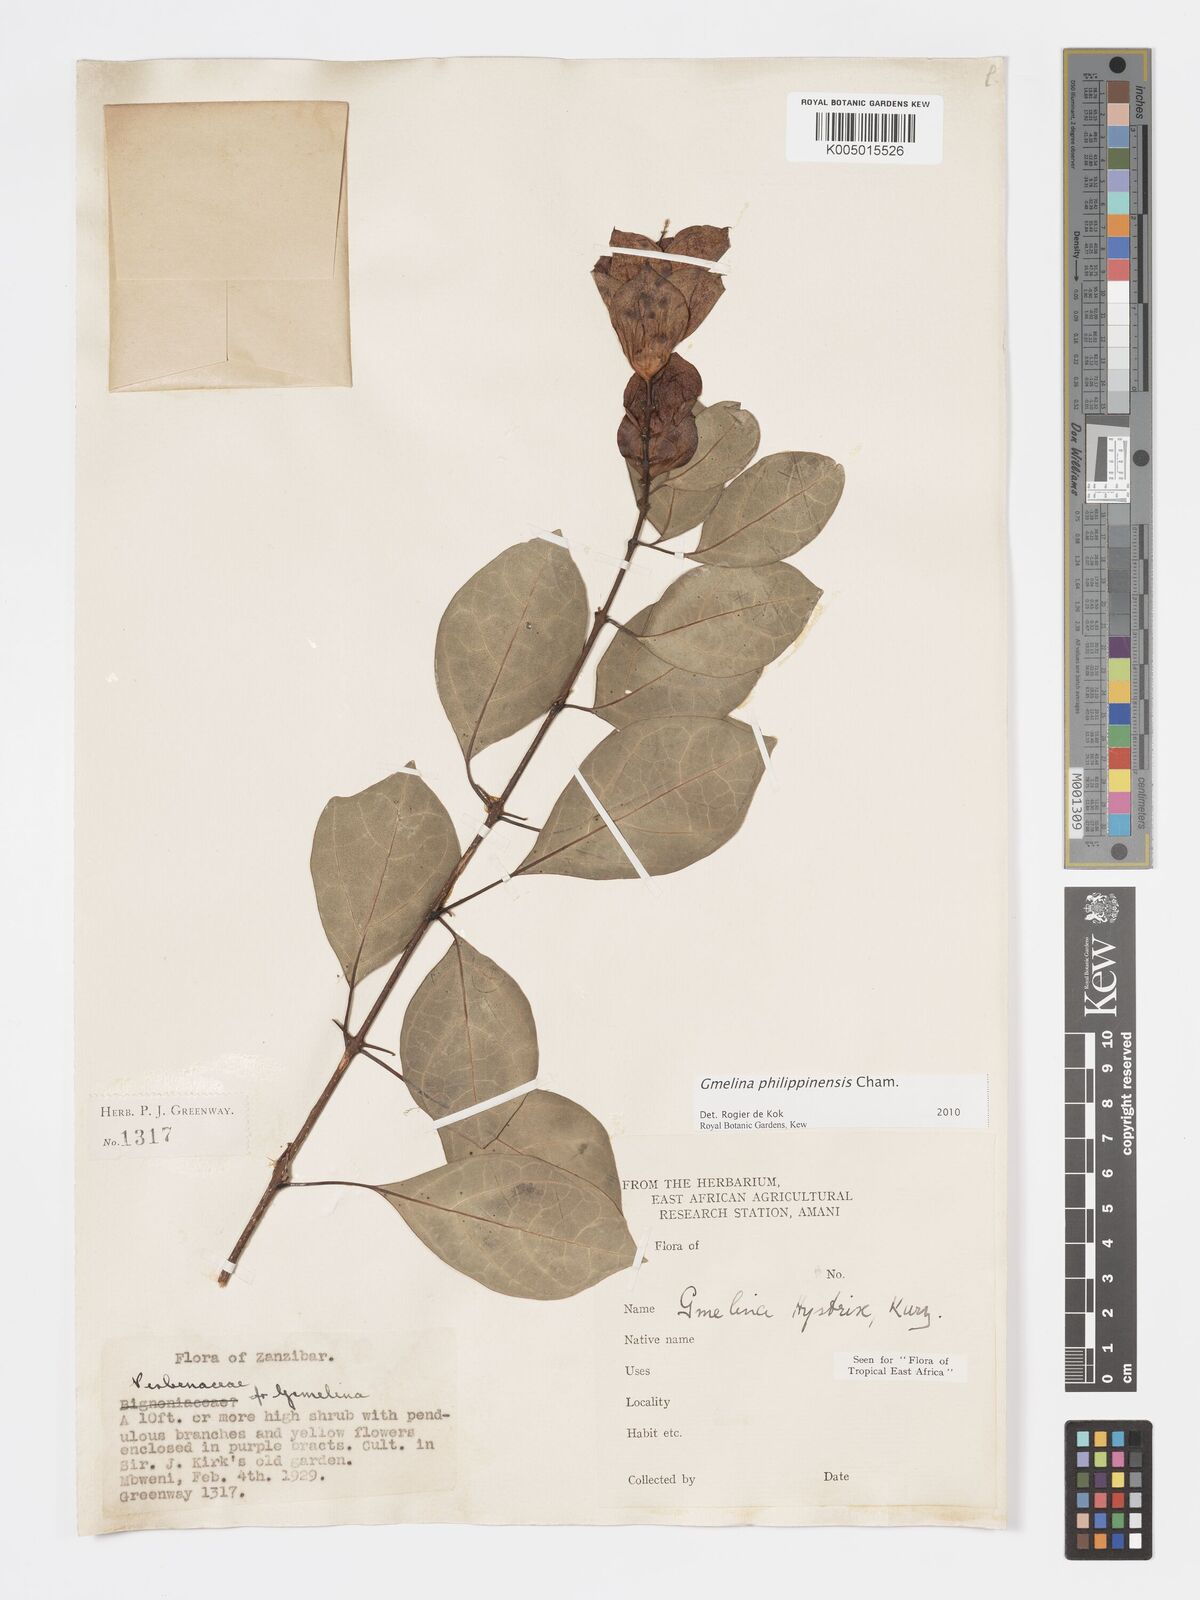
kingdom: Plantae
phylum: Tracheophyta
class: Magnoliopsida
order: Lamiales
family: Lamiaceae
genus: Gmelina
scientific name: Gmelina philippensis
